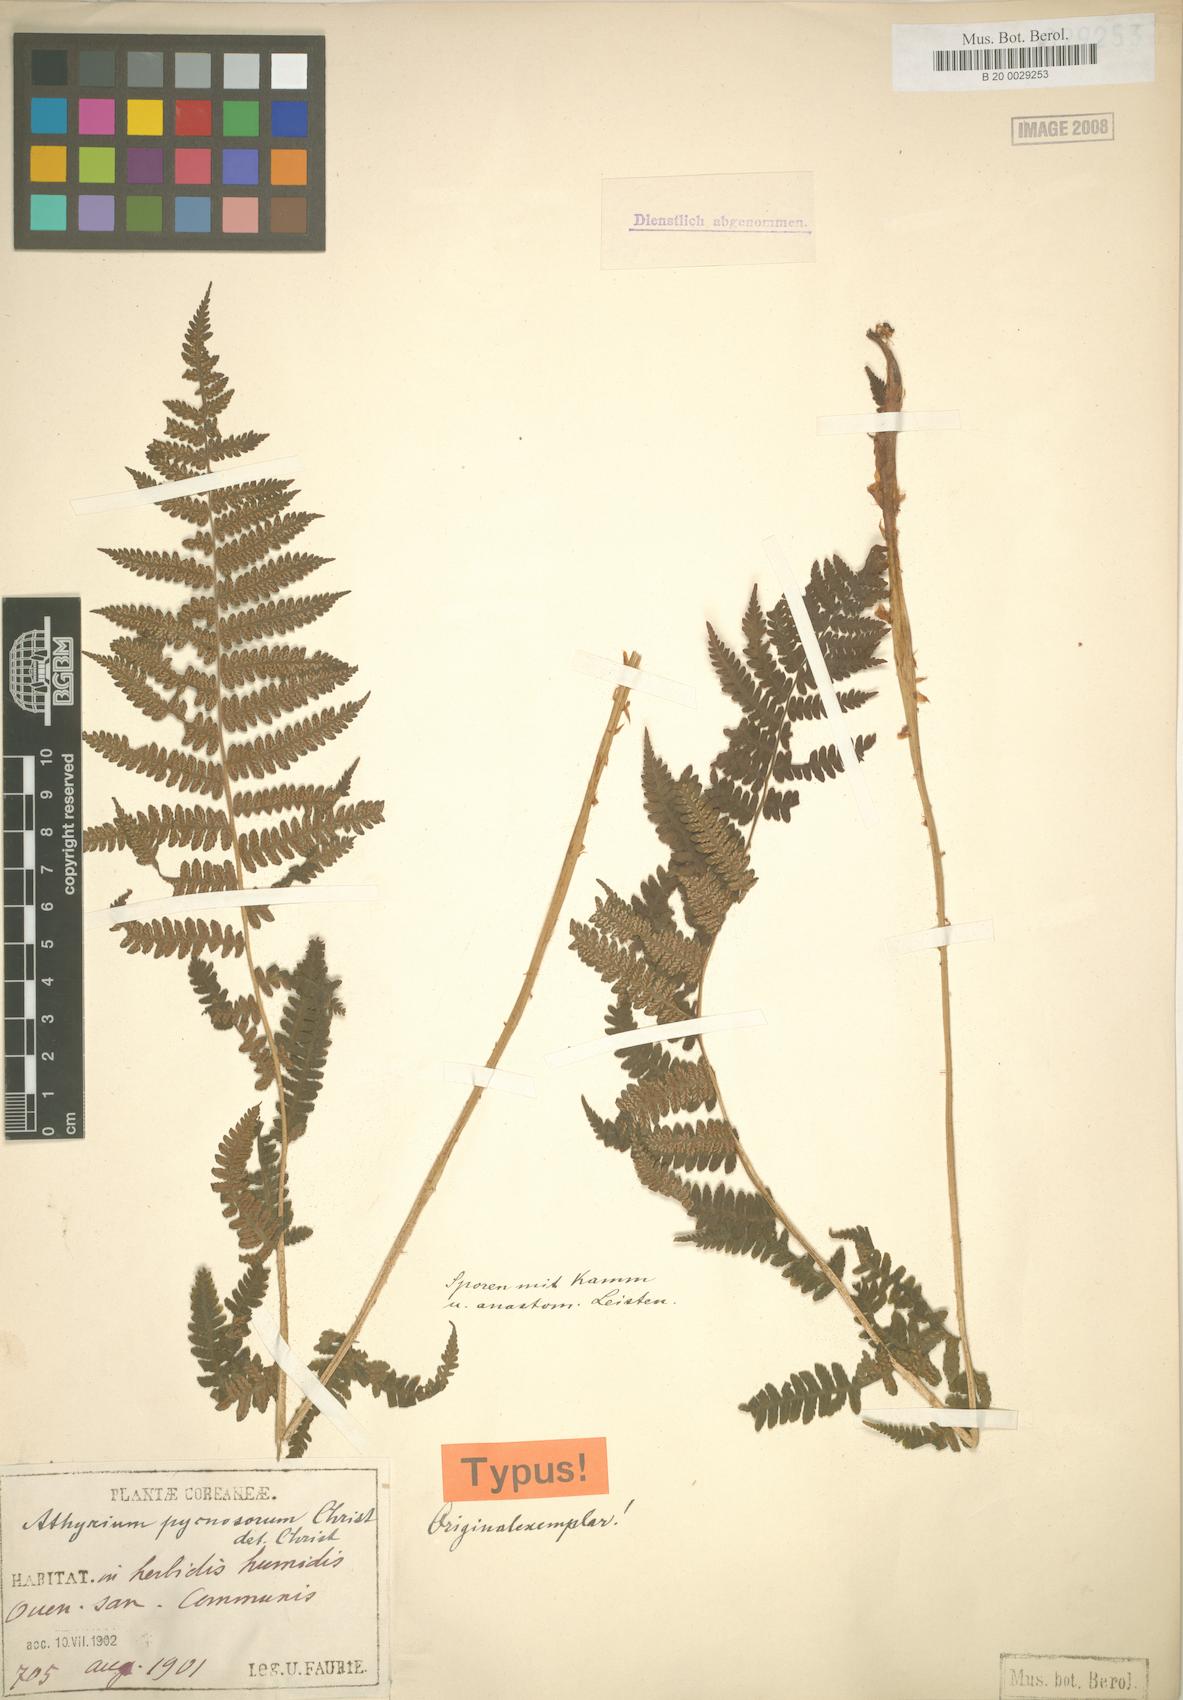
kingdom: Plantae
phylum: Tracheophyta
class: Polypodiopsida
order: Polypodiales
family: Athyriaceae
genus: Deparia
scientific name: Deparia pycnosora
